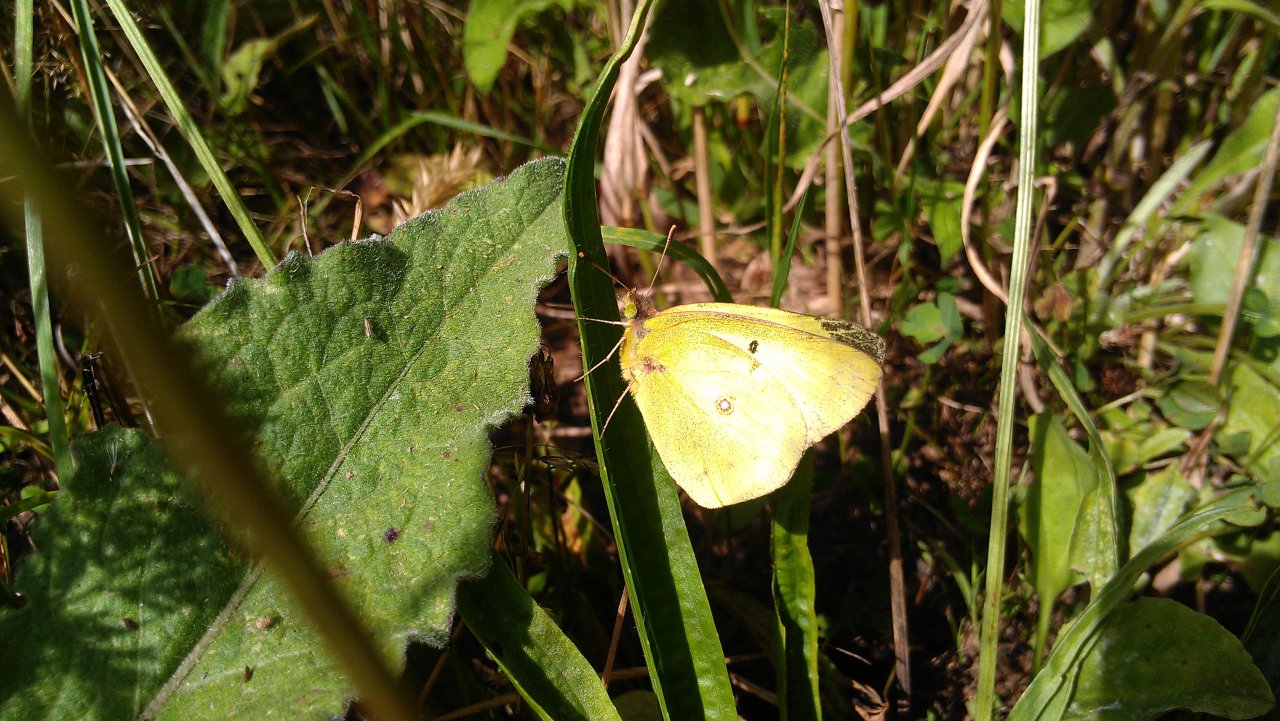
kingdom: Animalia
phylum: Arthropoda
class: Insecta
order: Lepidoptera
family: Pieridae
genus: Colias
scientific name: Colias philodice
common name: Clouded Sulphur
